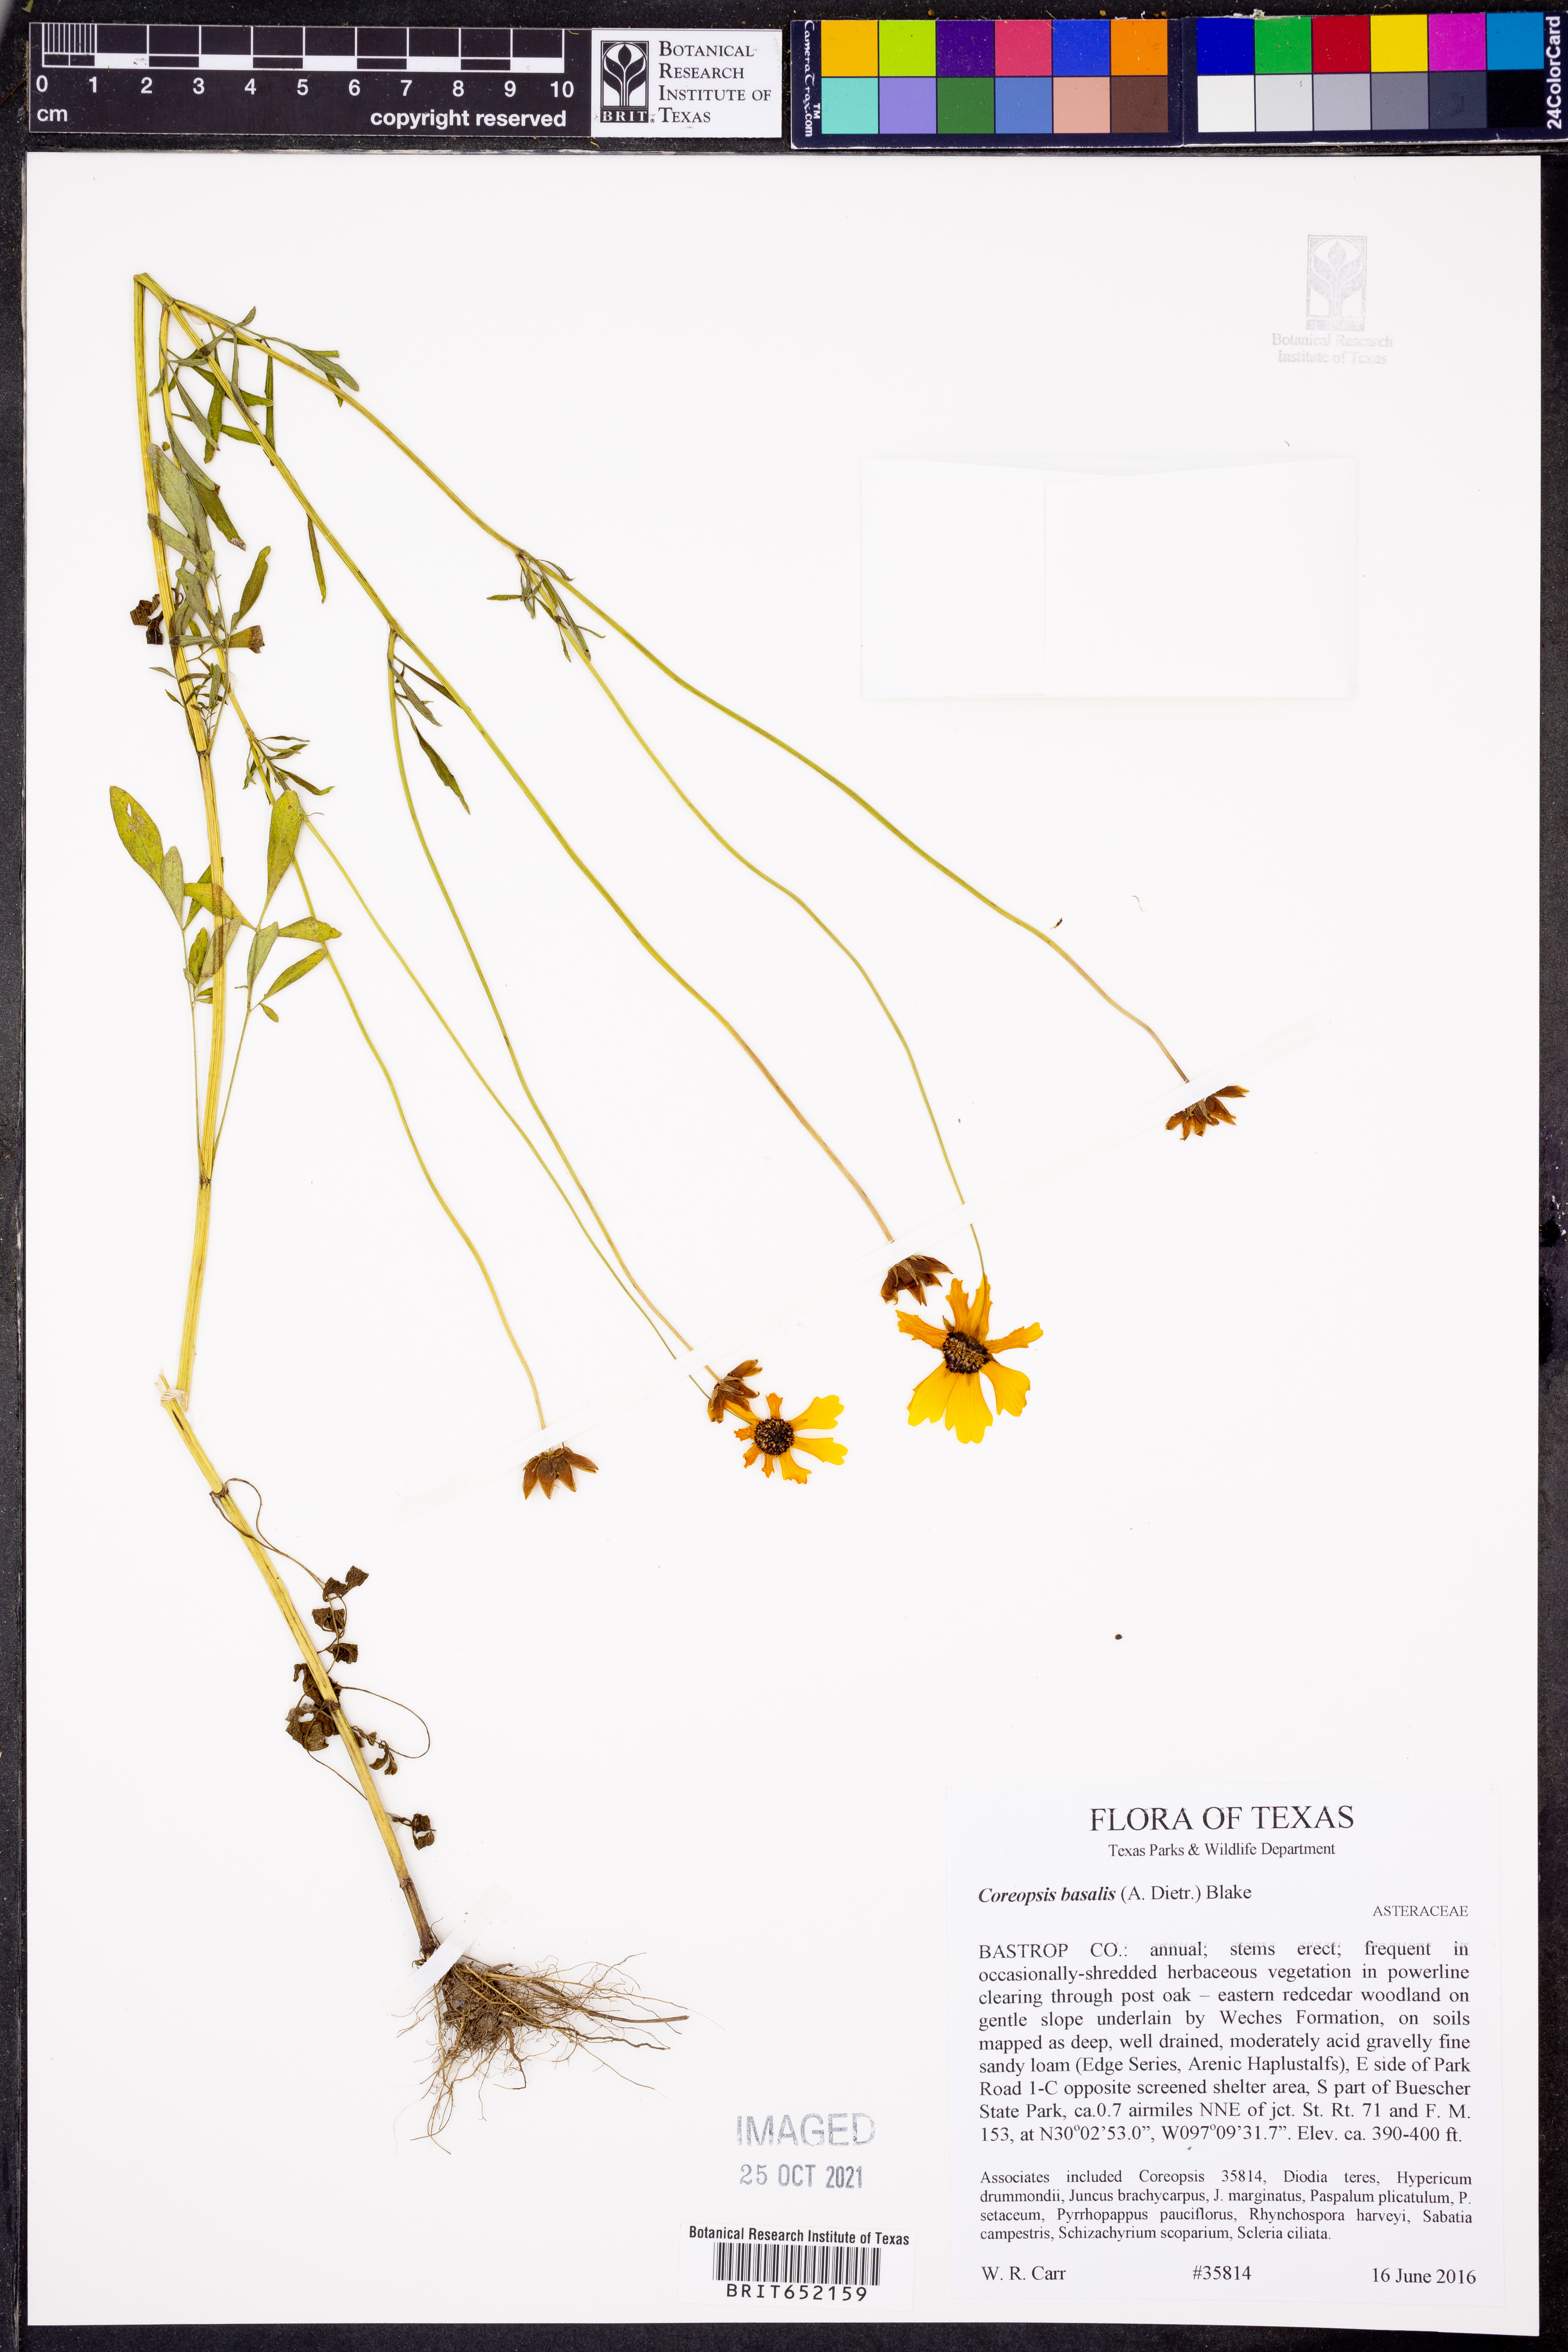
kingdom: Plantae
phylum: Tracheophyta
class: Magnoliopsida
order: Asterales
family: Asteraceae
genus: Coreopsis
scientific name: Coreopsis basalis
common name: Golden-mane coreopsis
